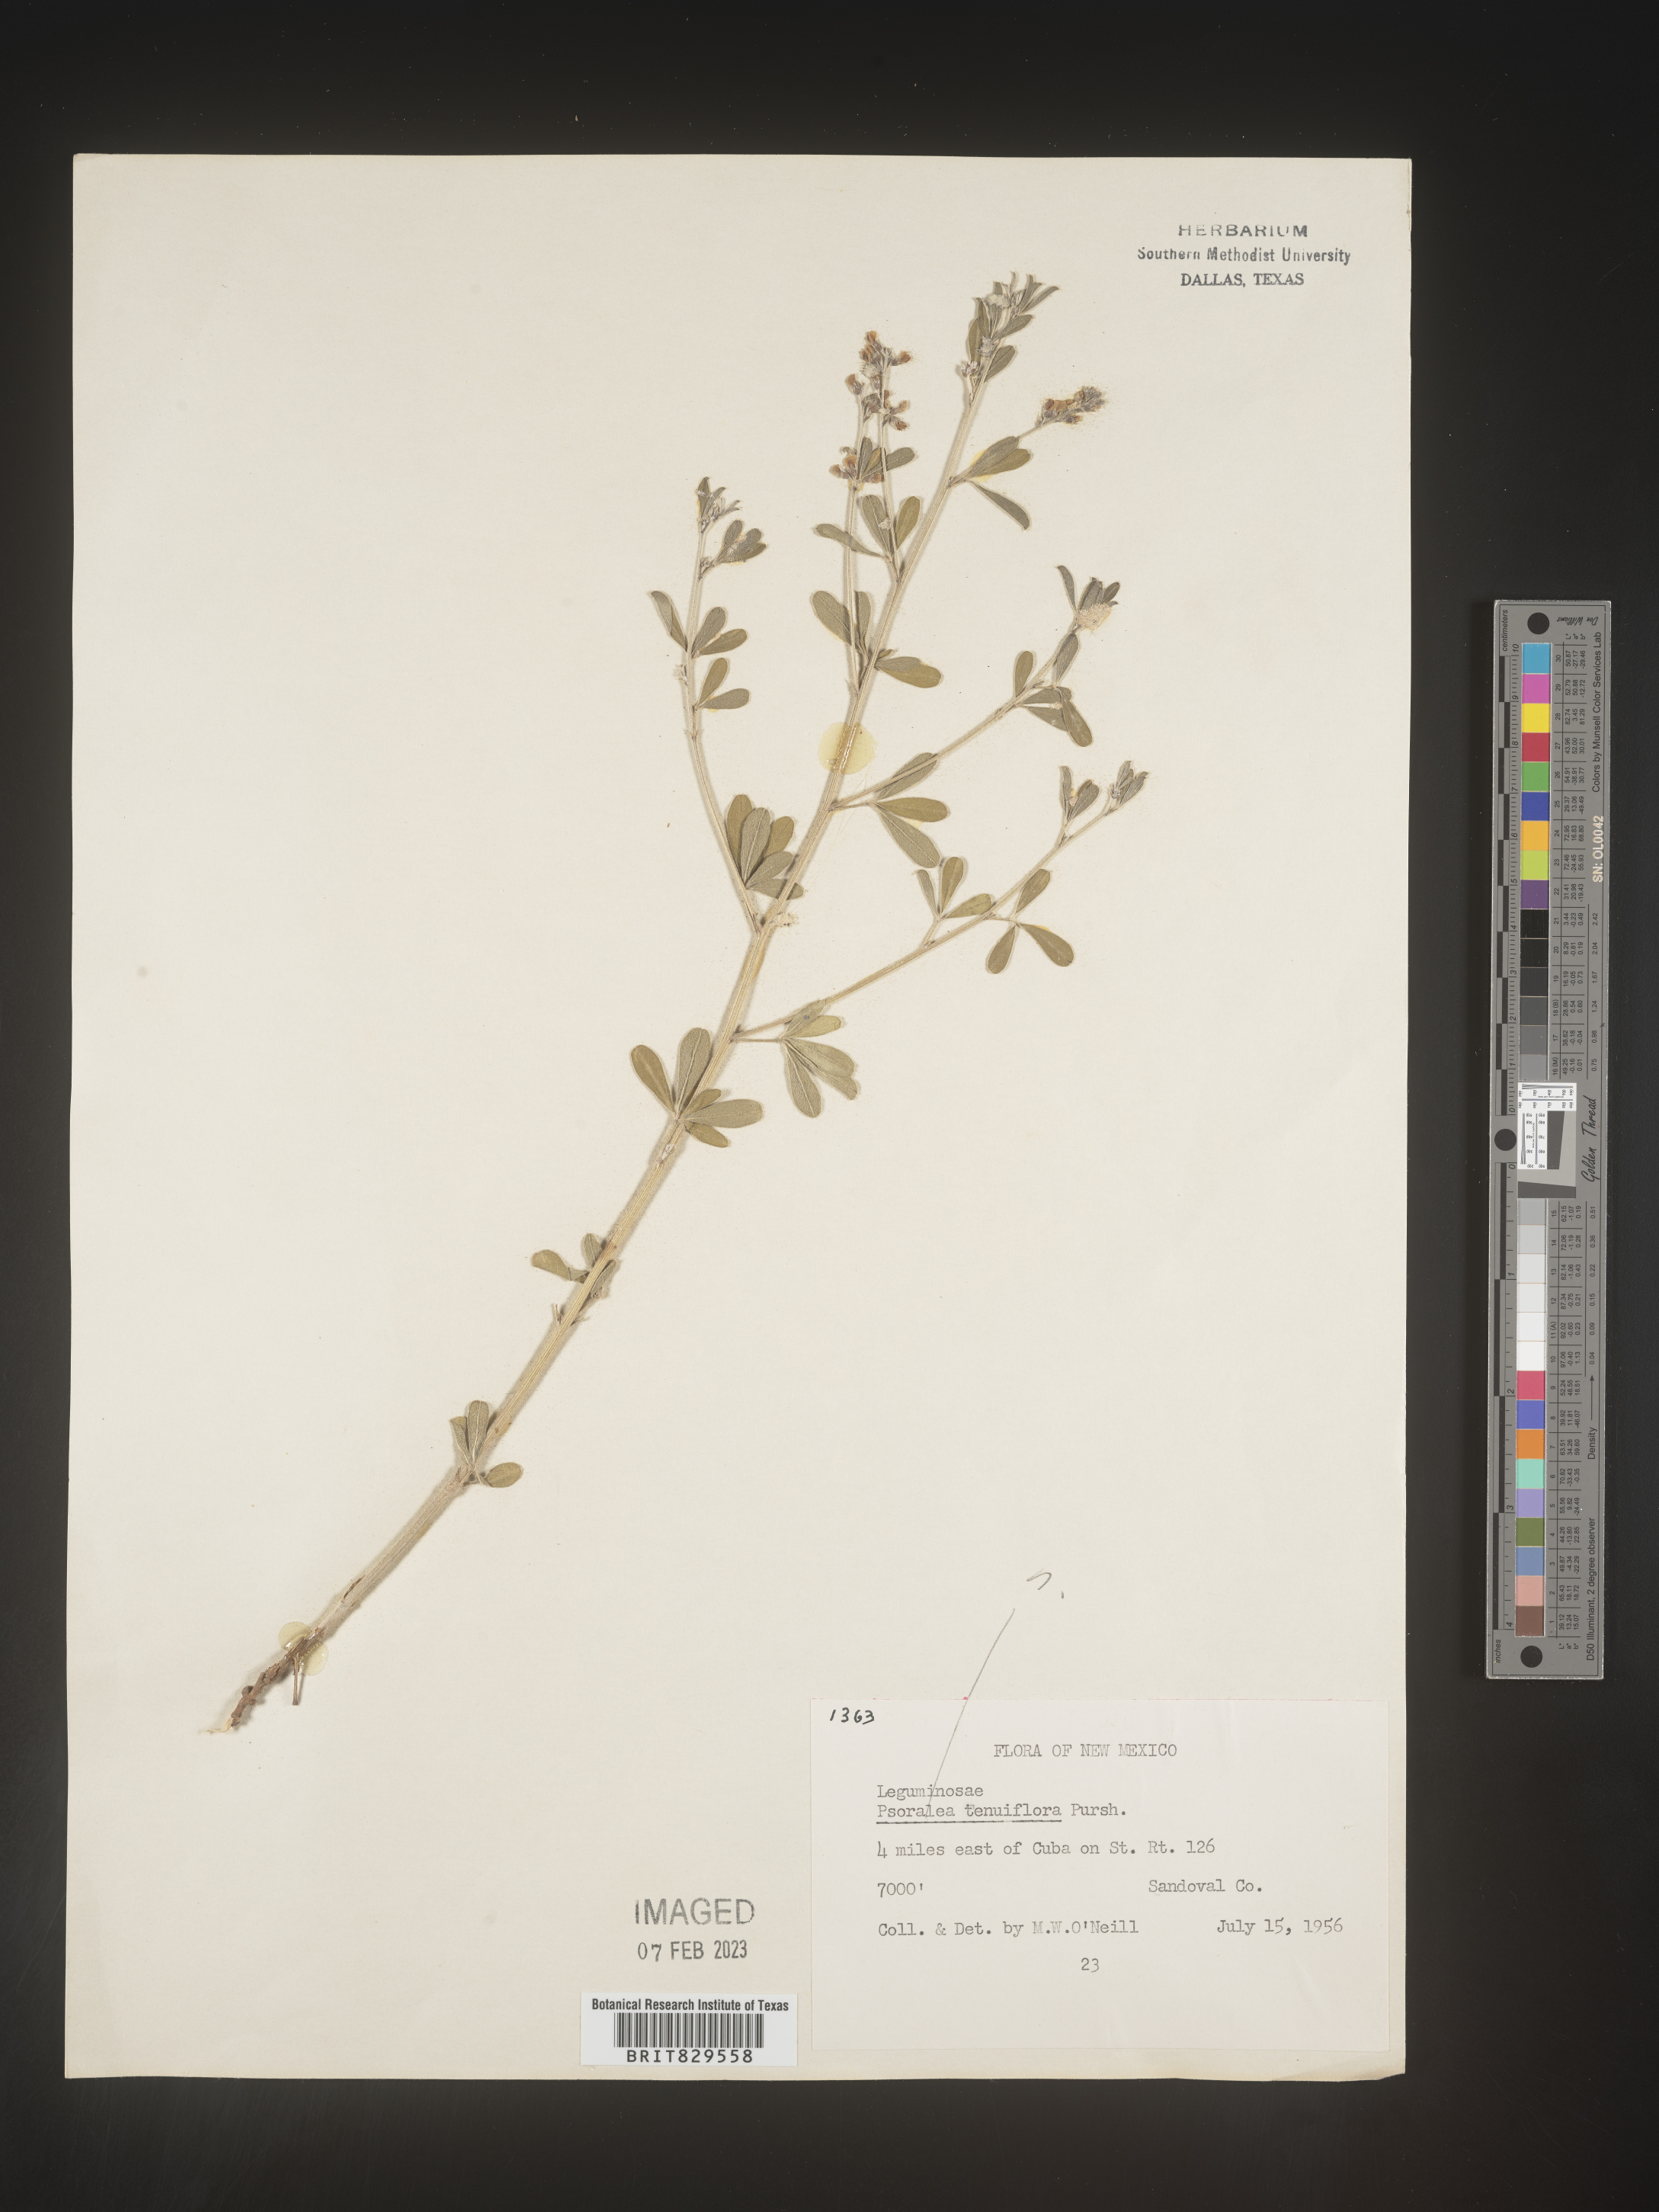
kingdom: Plantae
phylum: Tracheophyta
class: Magnoliopsida
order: Fabales
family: Fabaceae
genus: Pediomelum
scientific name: Pediomelum tenuiflorum
